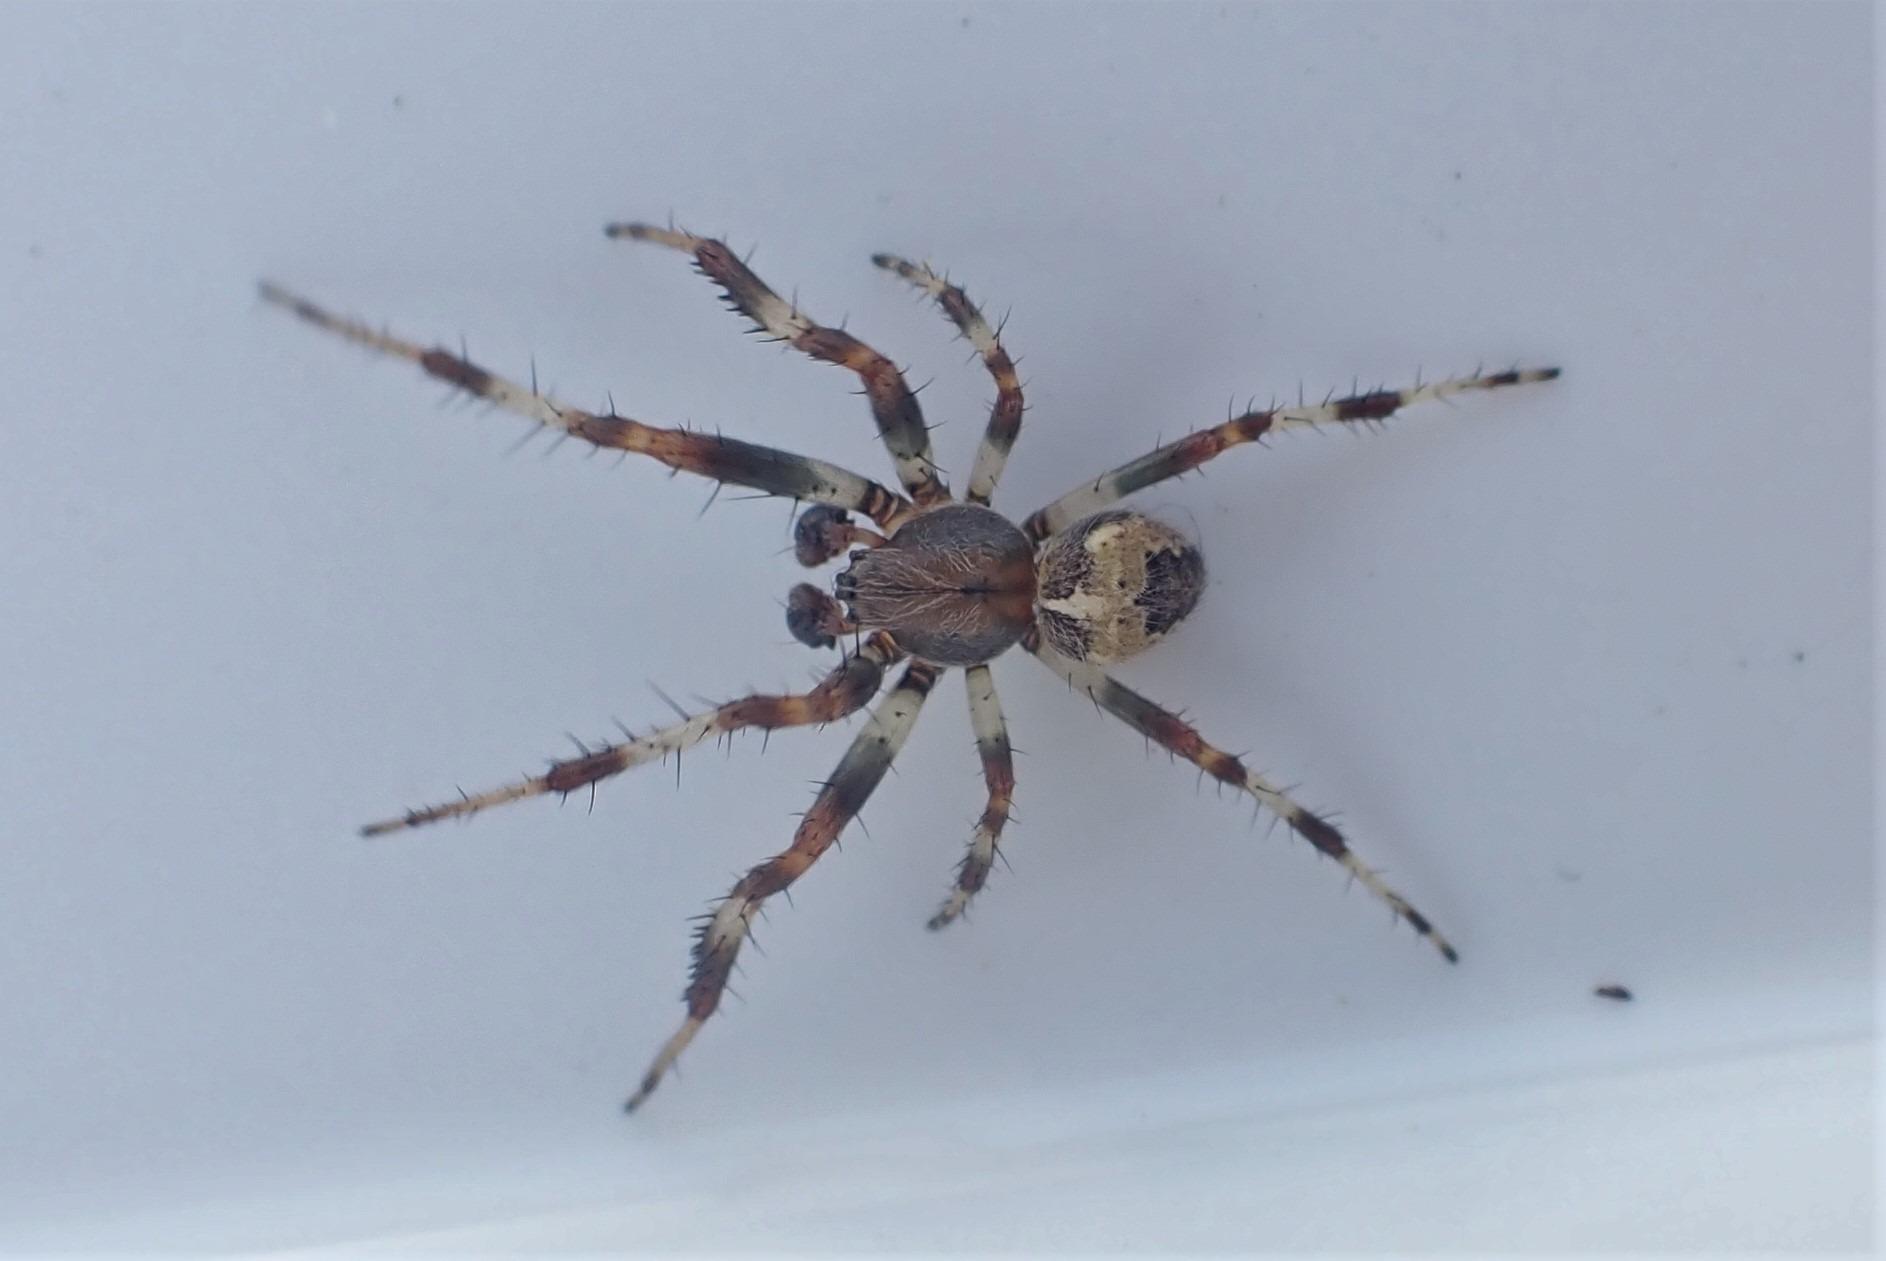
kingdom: Animalia
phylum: Arthropoda
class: Arachnida
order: Araneae
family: Araneidae
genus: Araneus
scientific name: Araneus marmoreus
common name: Marmoreret hjulspinder
